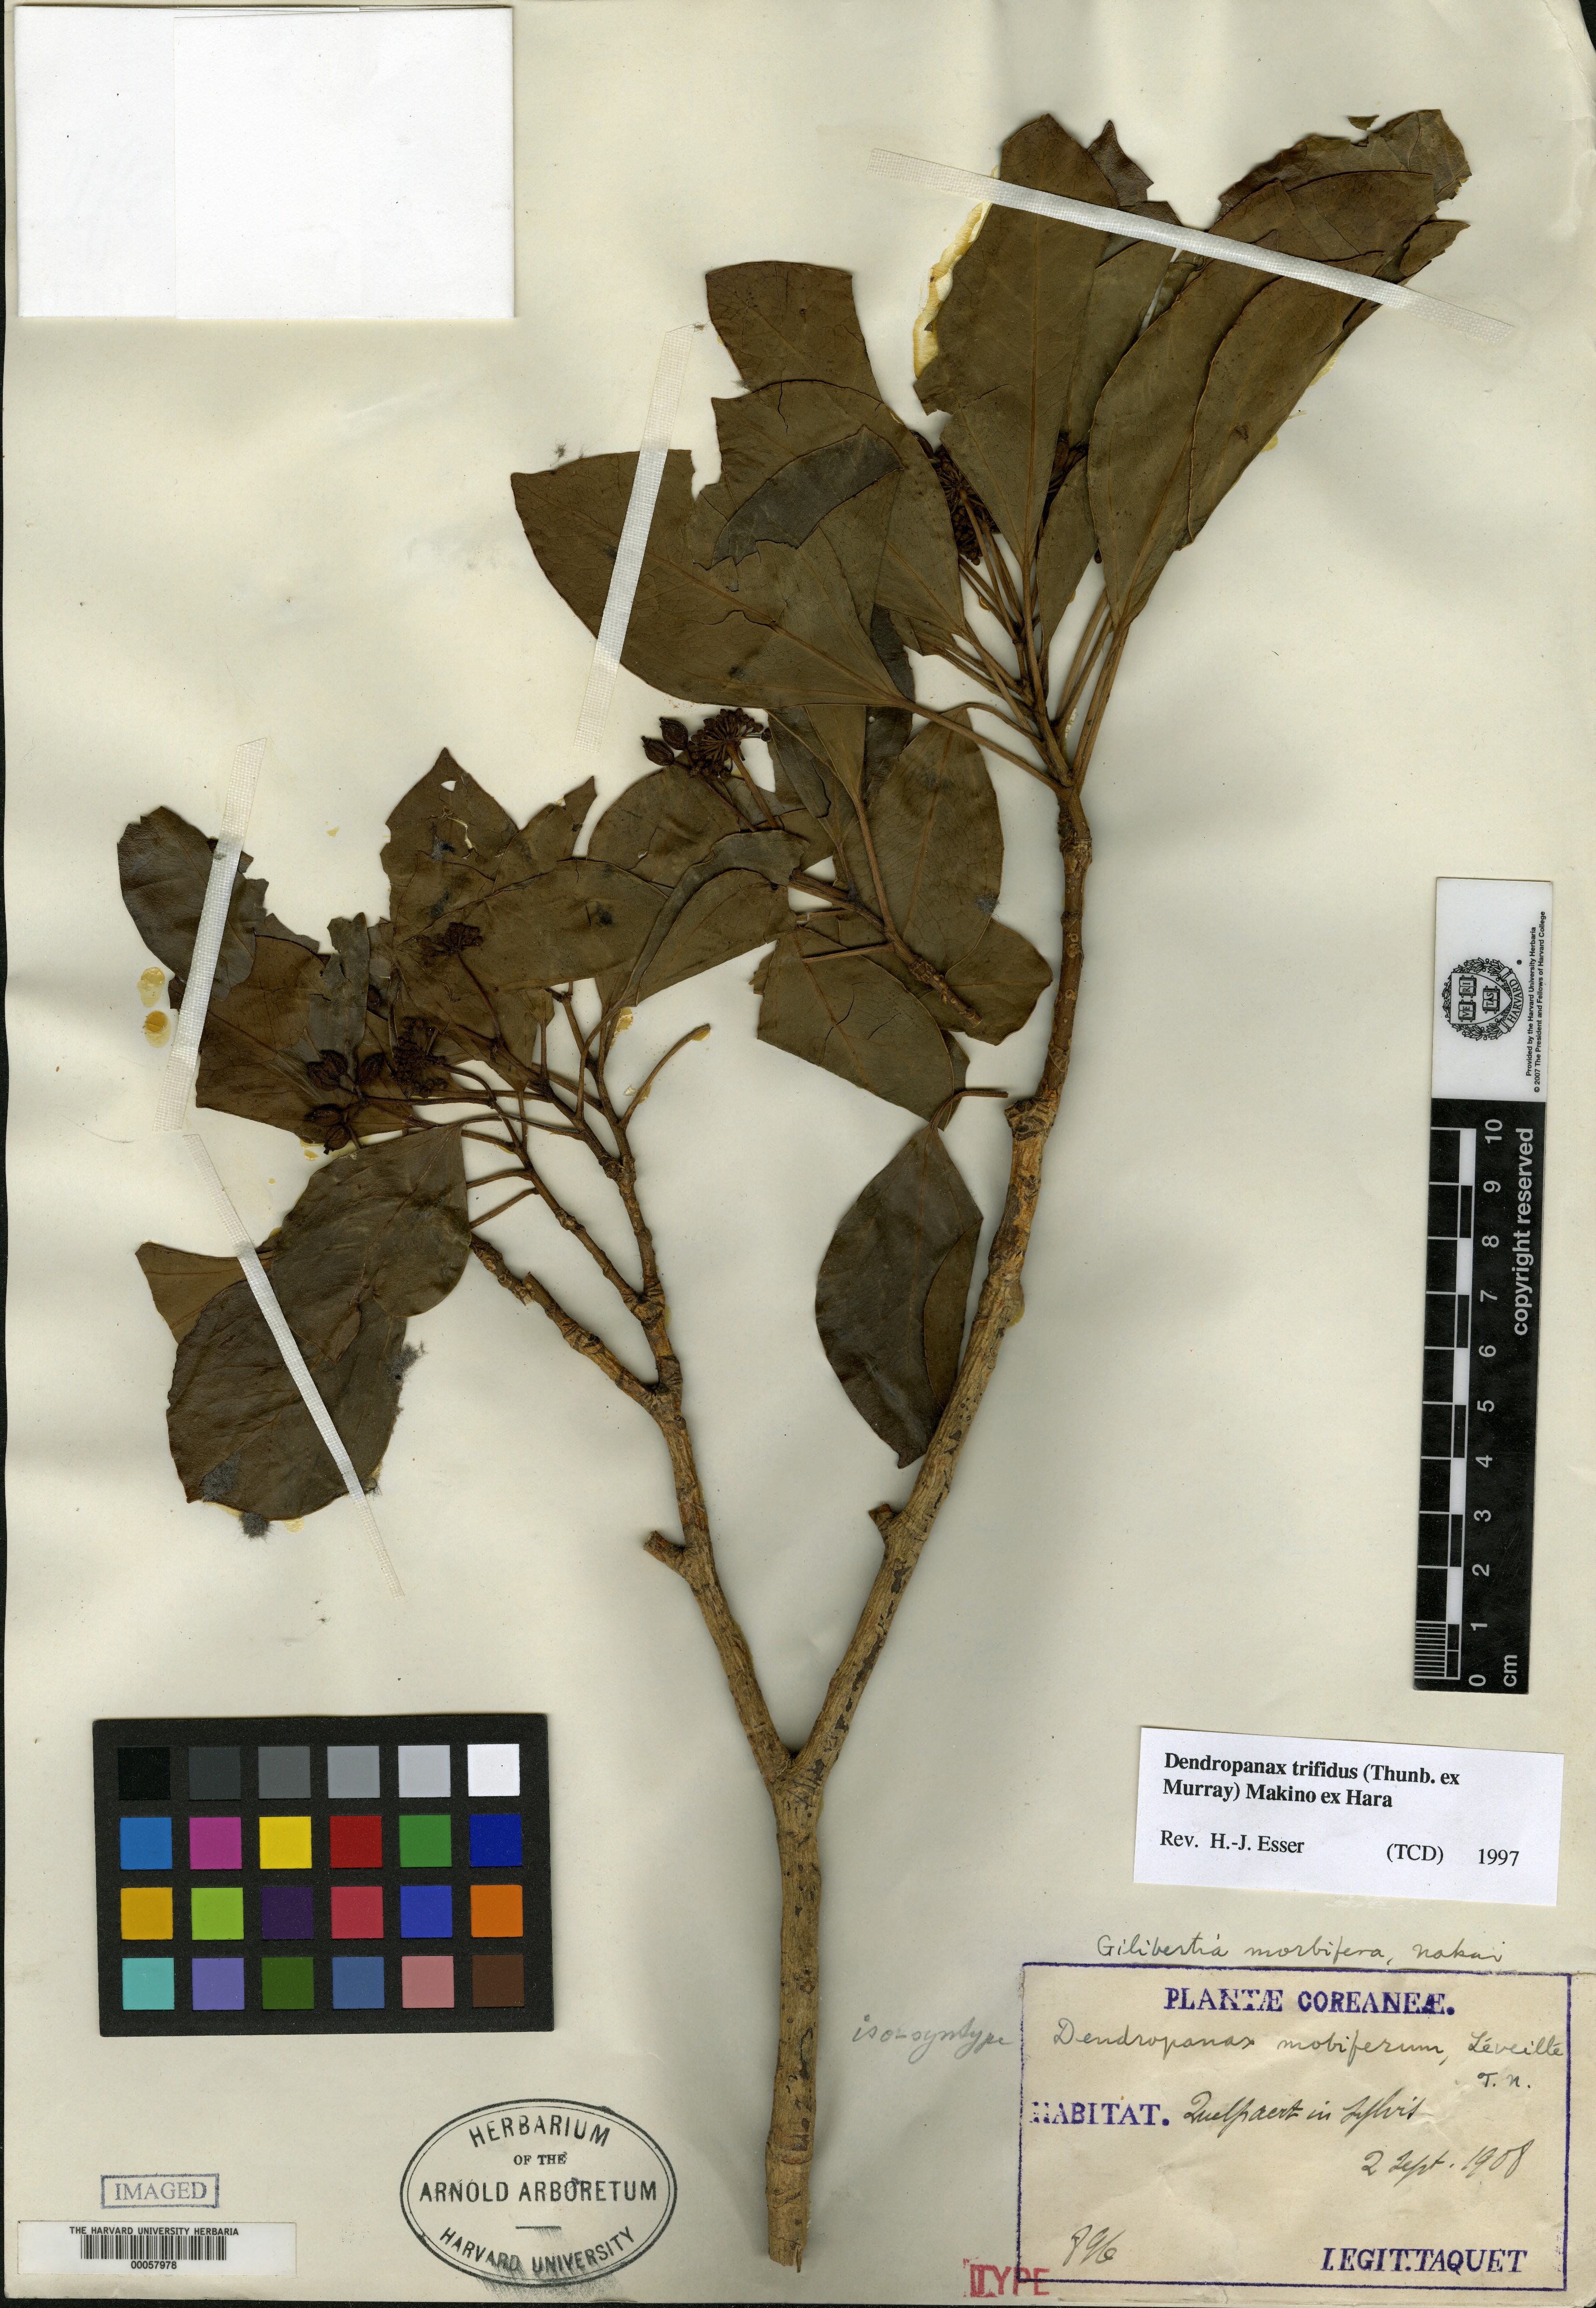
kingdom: Plantae
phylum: Tracheophyta
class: Magnoliopsida
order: Apiales
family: Araliaceae
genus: Dendropanax
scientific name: Dendropanax trifidus
